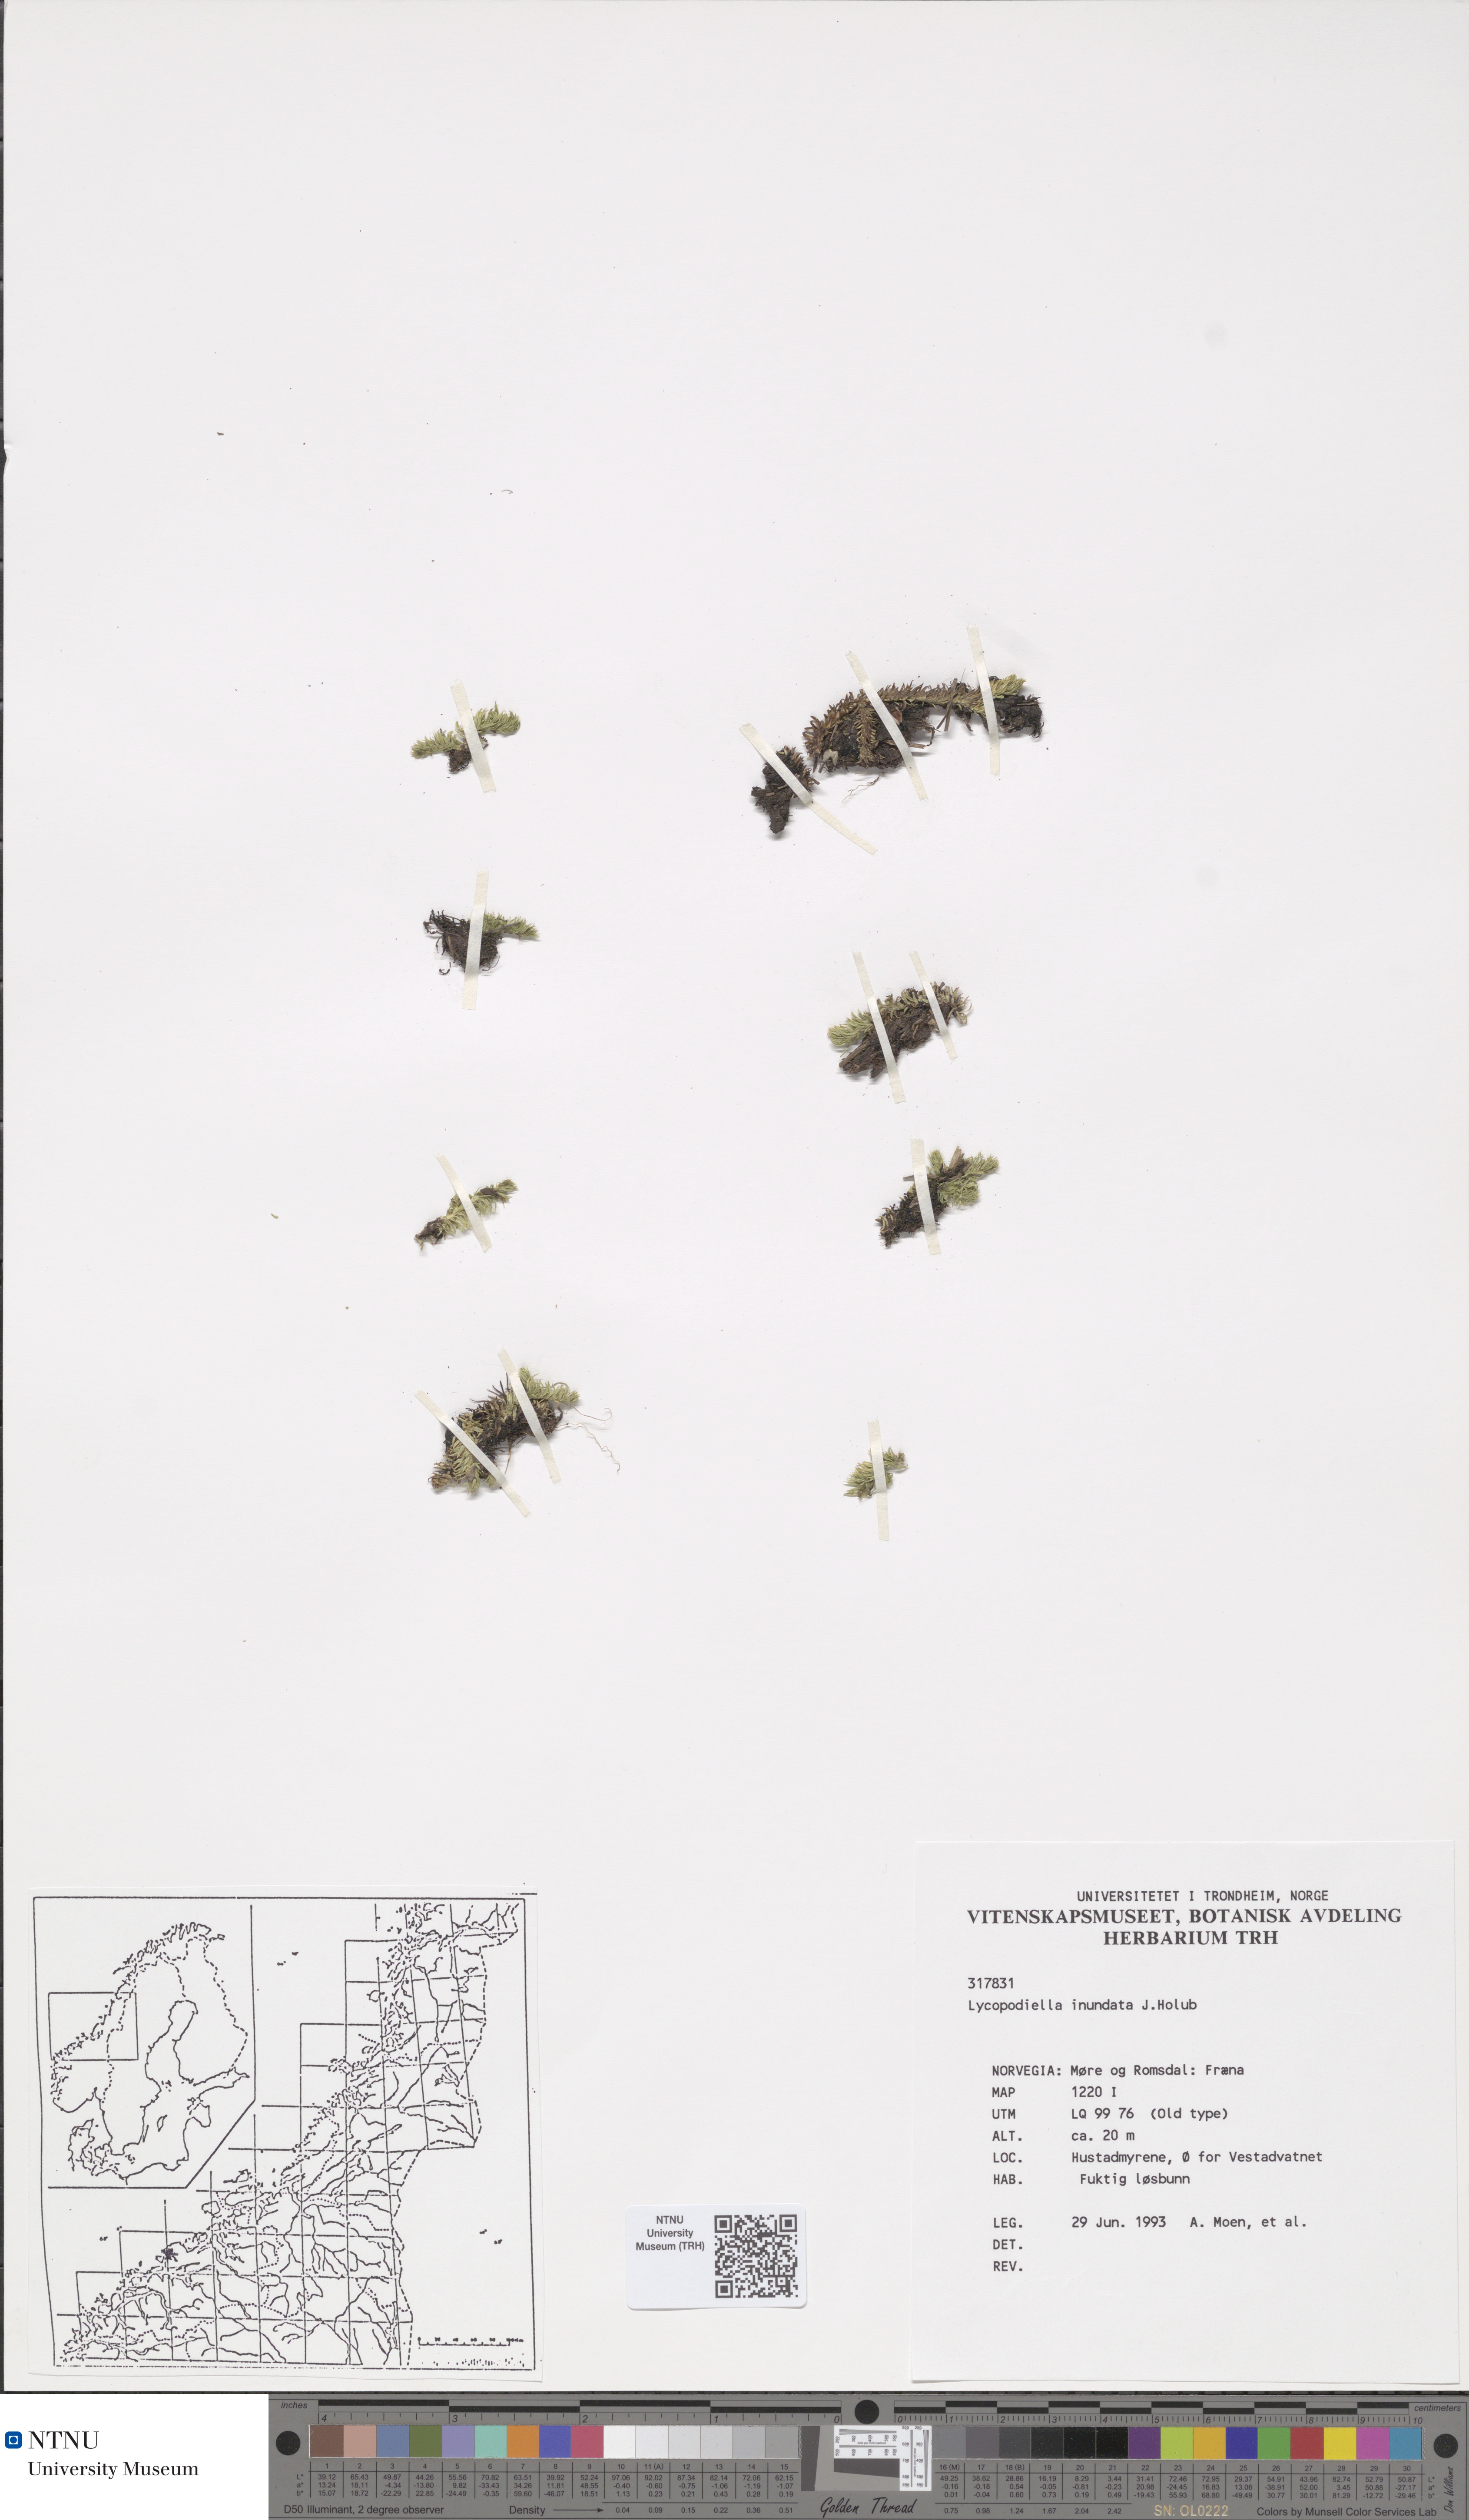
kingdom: Plantae
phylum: Tracheophyta
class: Lycopodiopsida
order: Lycopodiales
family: Lycopodiaceae
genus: Lycopodiella
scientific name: Lycopodiella inundata
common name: Marsh clubmoss
